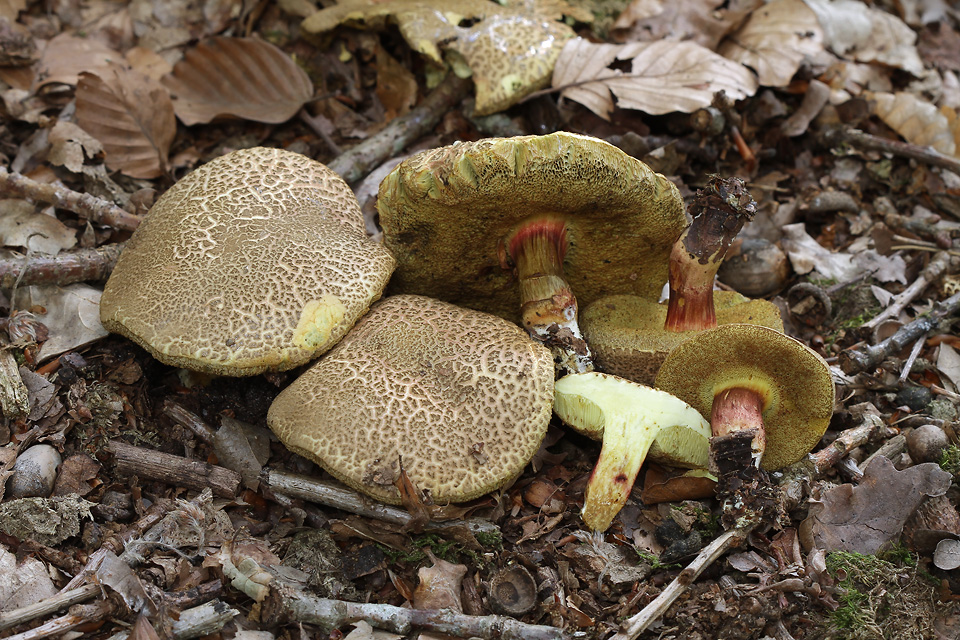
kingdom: Fungi
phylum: Basidiomycota
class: Agaricomycetes
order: Boletales
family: Boletaceae
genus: Xerocomellus
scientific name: Xerocomellus chrysenteron
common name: rødsprukken rørhat
